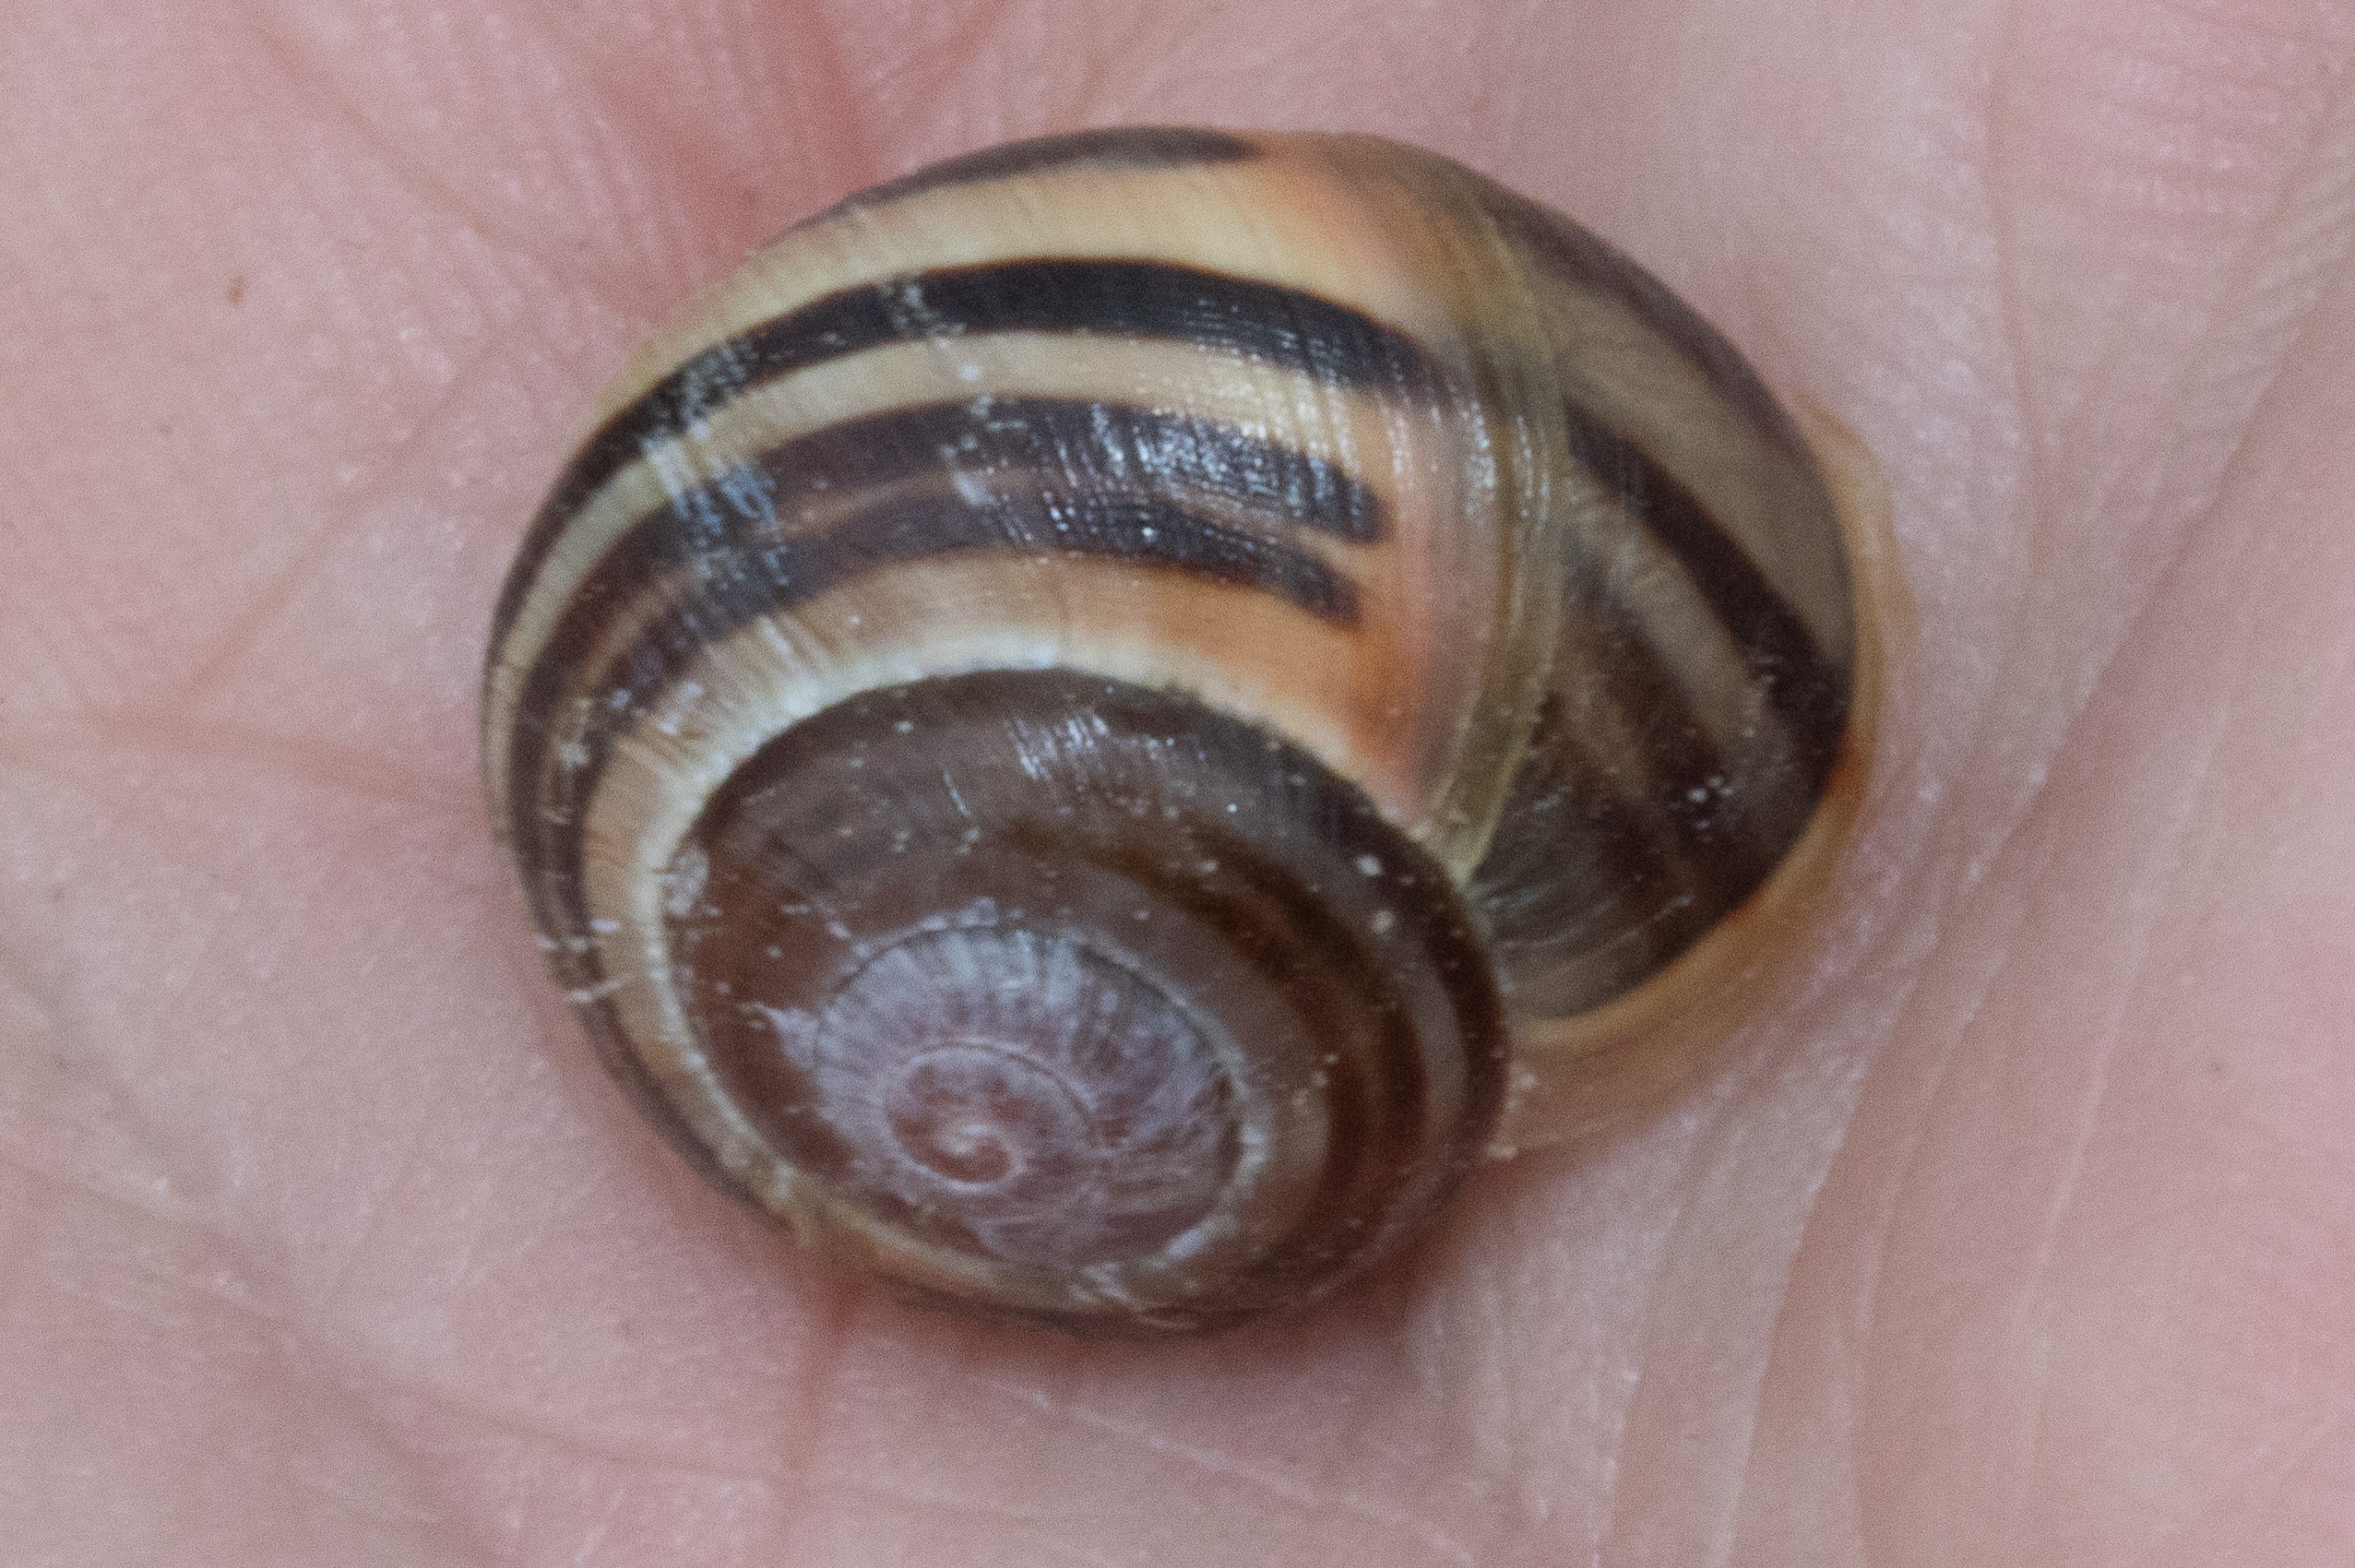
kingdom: Animalia
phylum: Mollusca
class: Gastropoda
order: Stylommatophora
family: Helicidae
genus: Cepaea
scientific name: Cepaea
